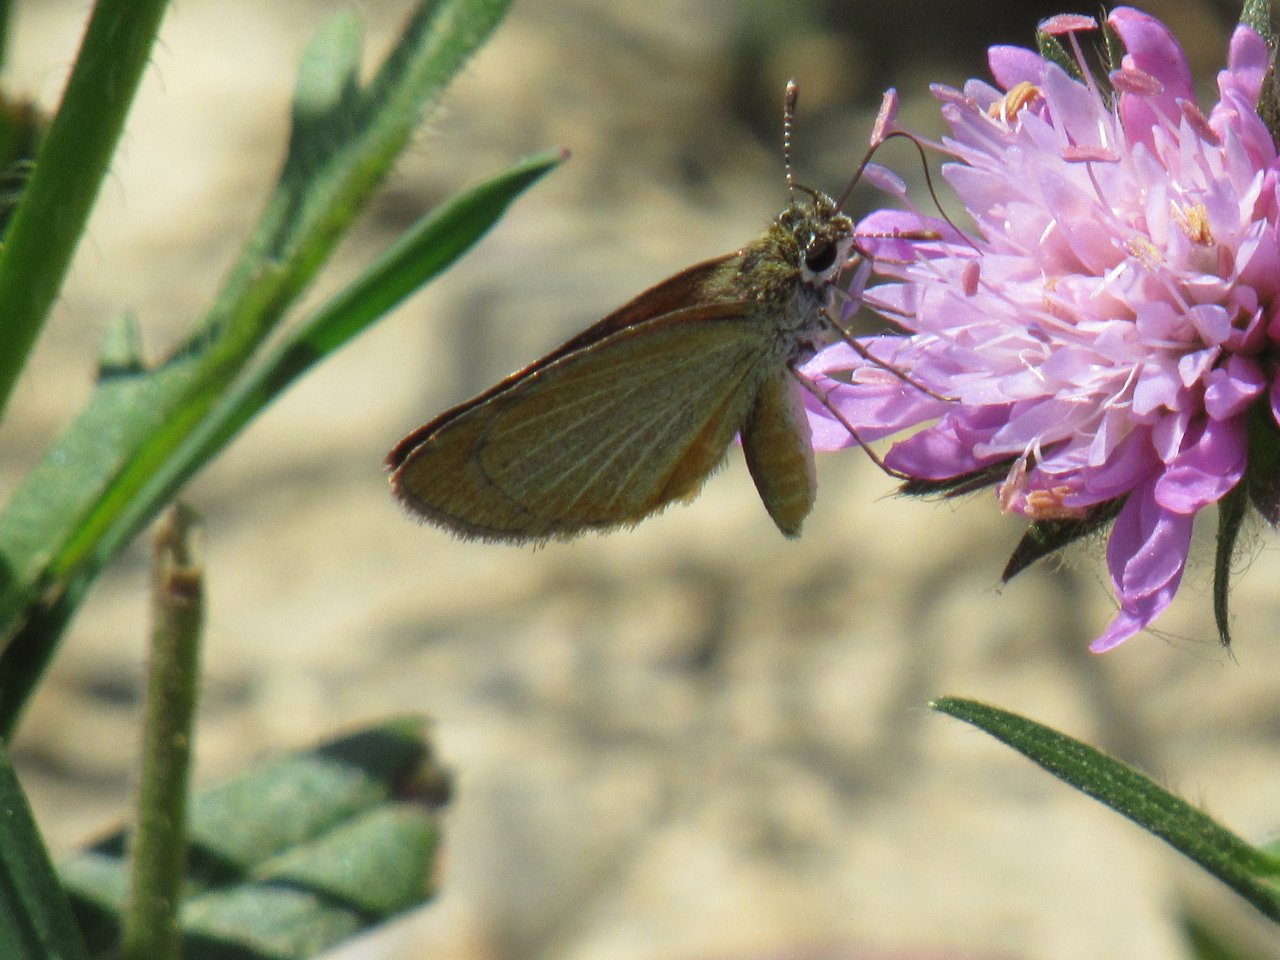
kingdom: Animalia
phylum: Arthropoda
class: Insecta
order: Lepidoptera
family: Hesperiidae
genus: Ancyloxypha
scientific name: Ancyloxypha numitor
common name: Least Skipper
